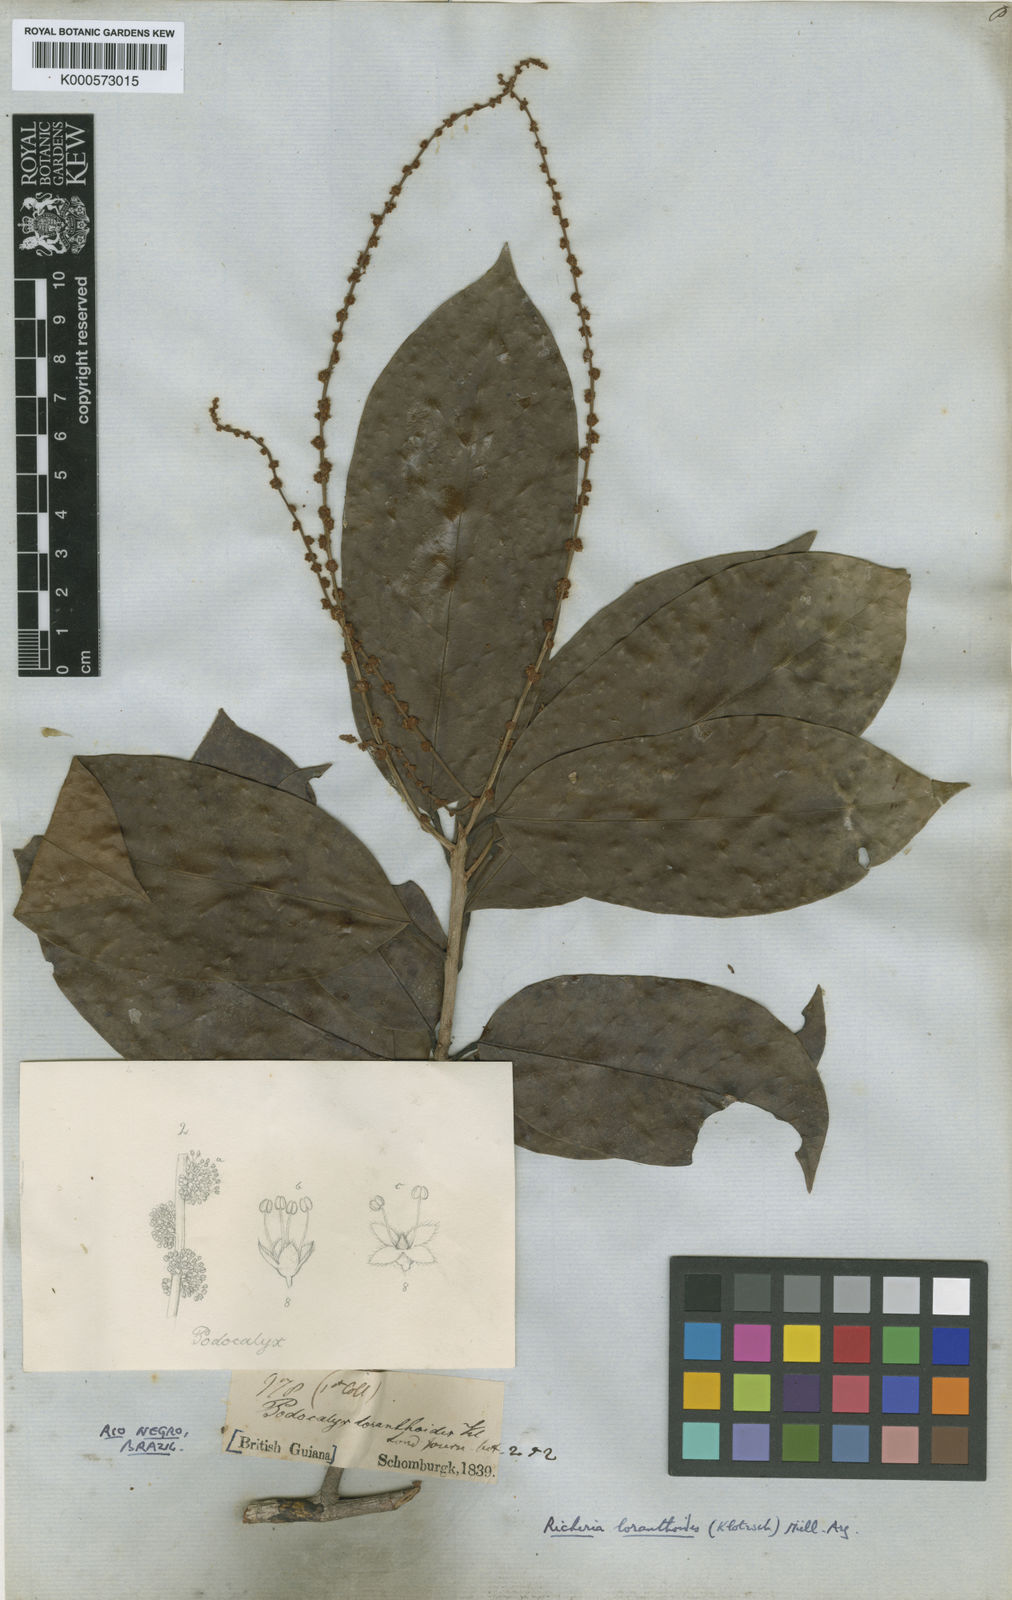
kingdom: Plantae
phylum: Tracheophyta
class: Magnoliopsida
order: Malpighiales
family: Picrodendraceae
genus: Podocalyx
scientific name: Podocalyx loranthoides
